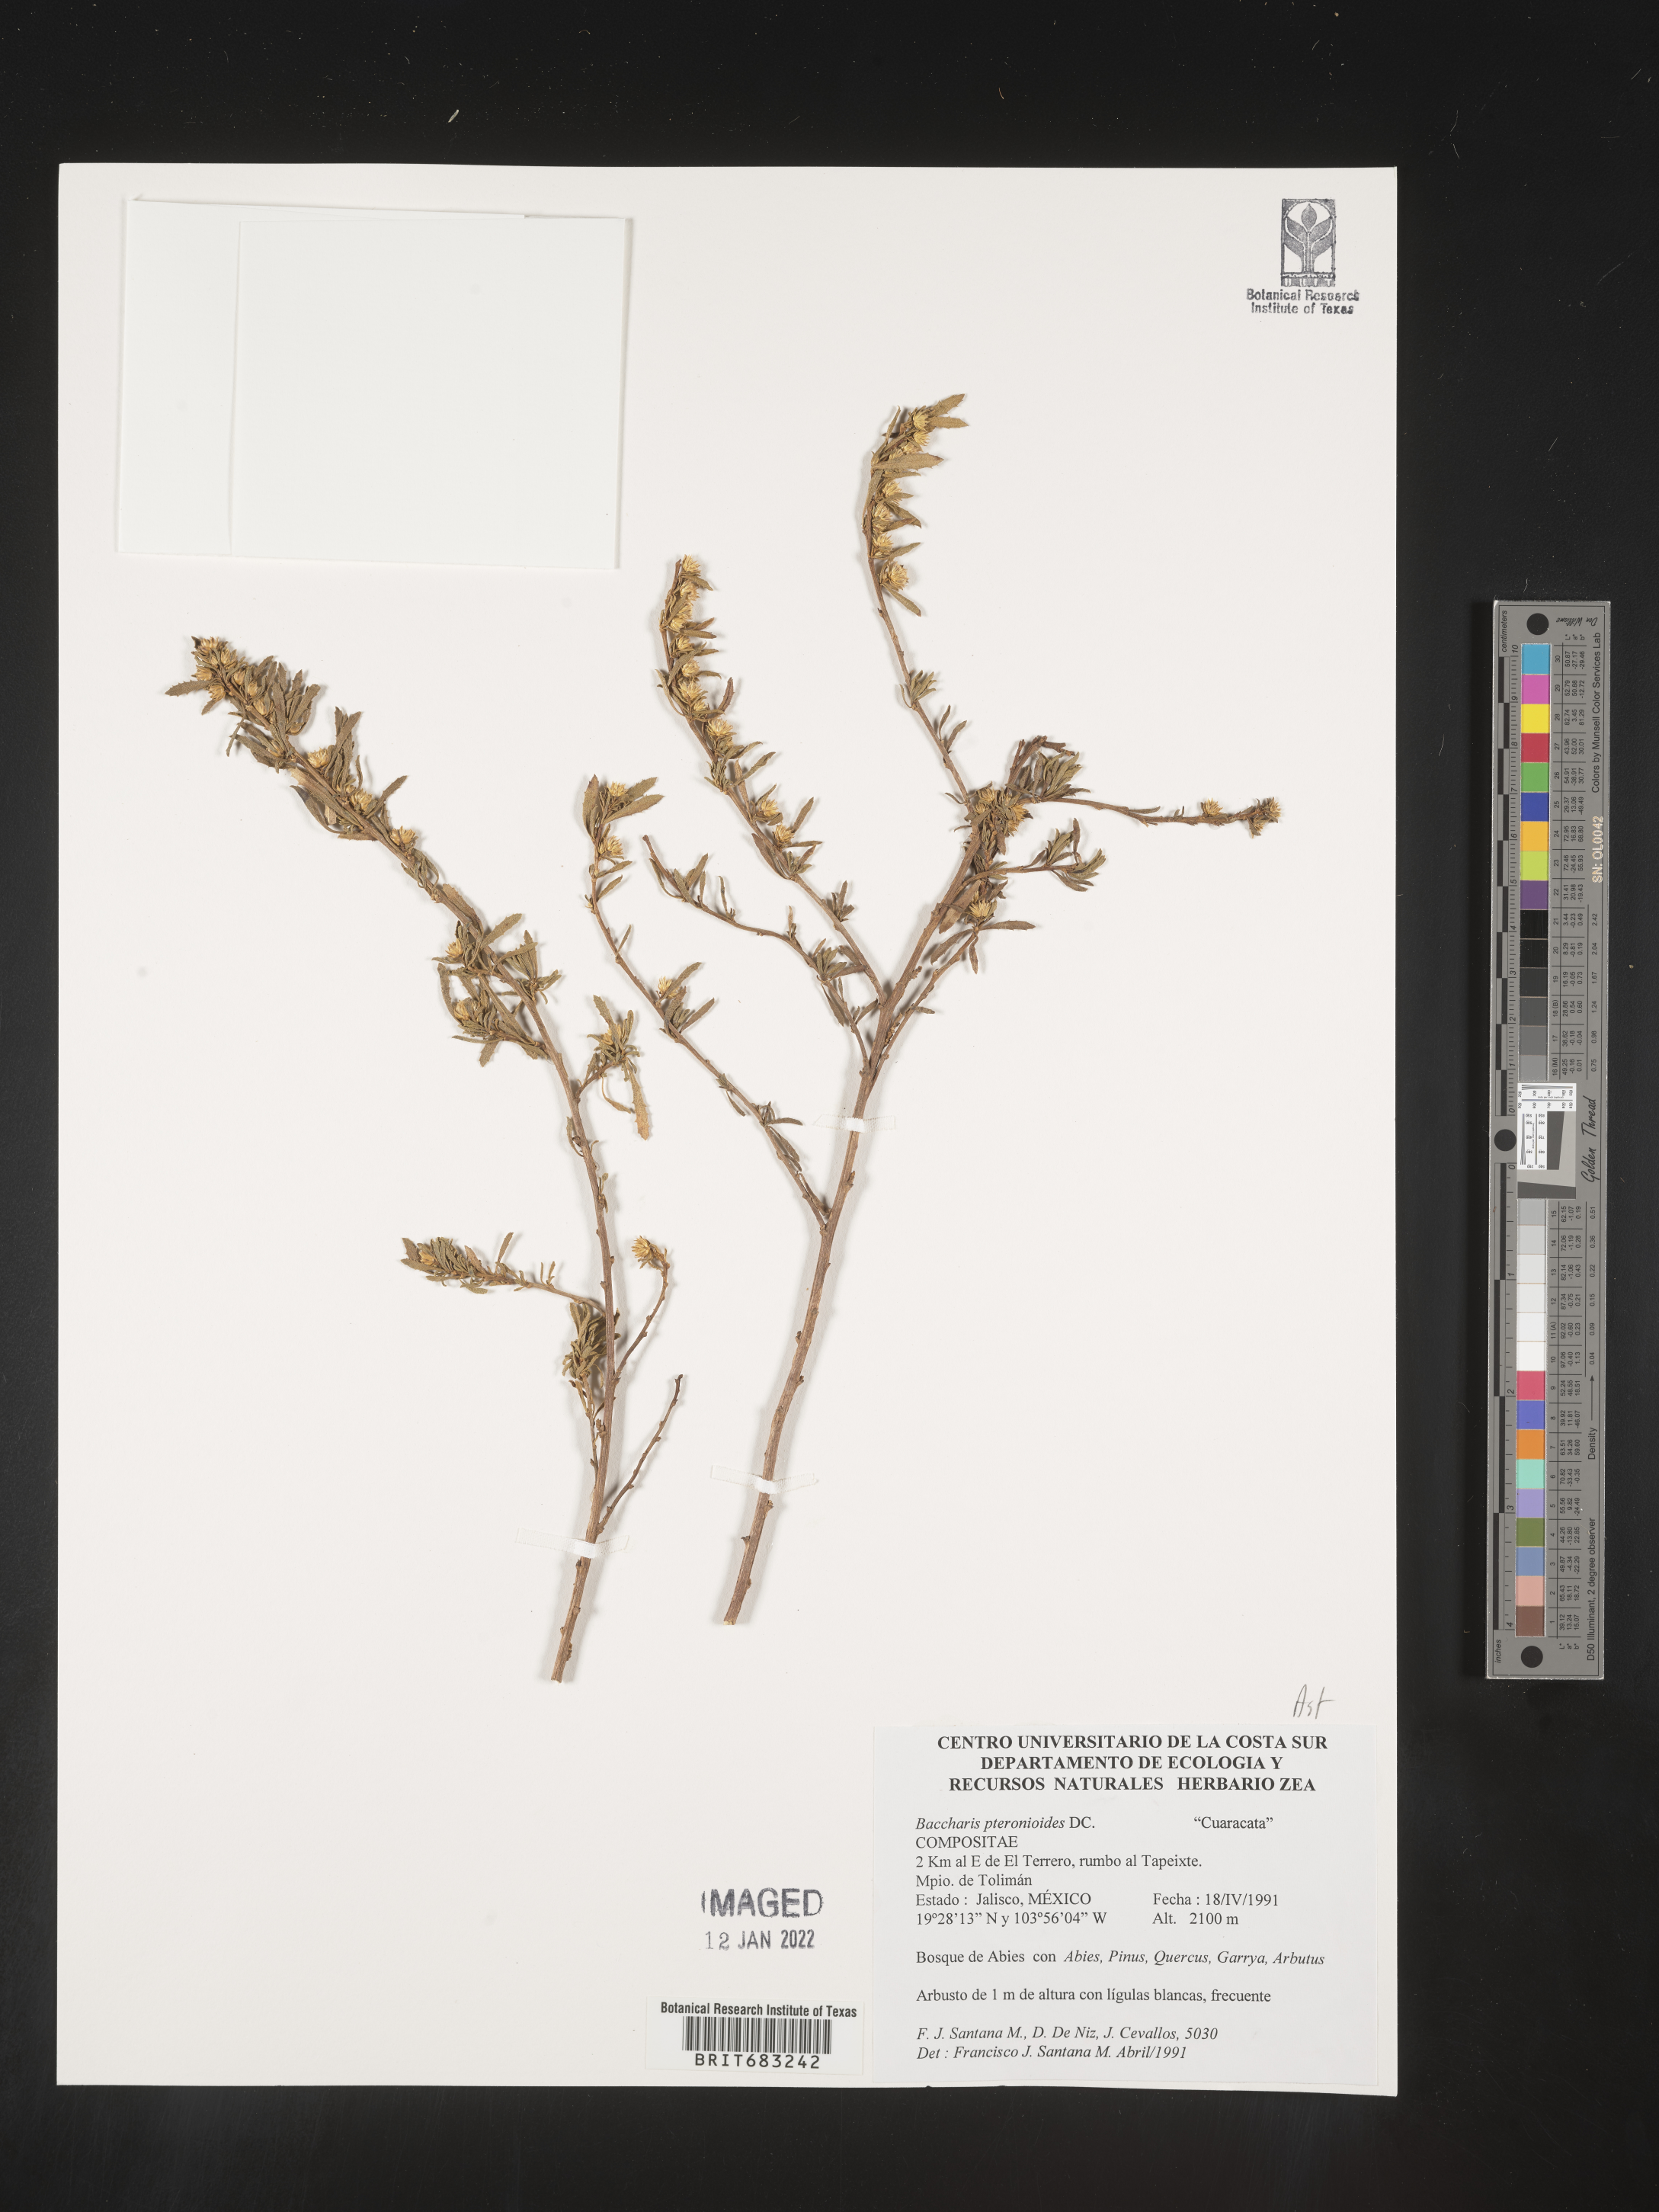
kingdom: Plantae
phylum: Tracheophyta
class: Magnoliopsida
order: Asterales
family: Asteraceae
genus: Baccharis
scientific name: Baccharis pteronioides
